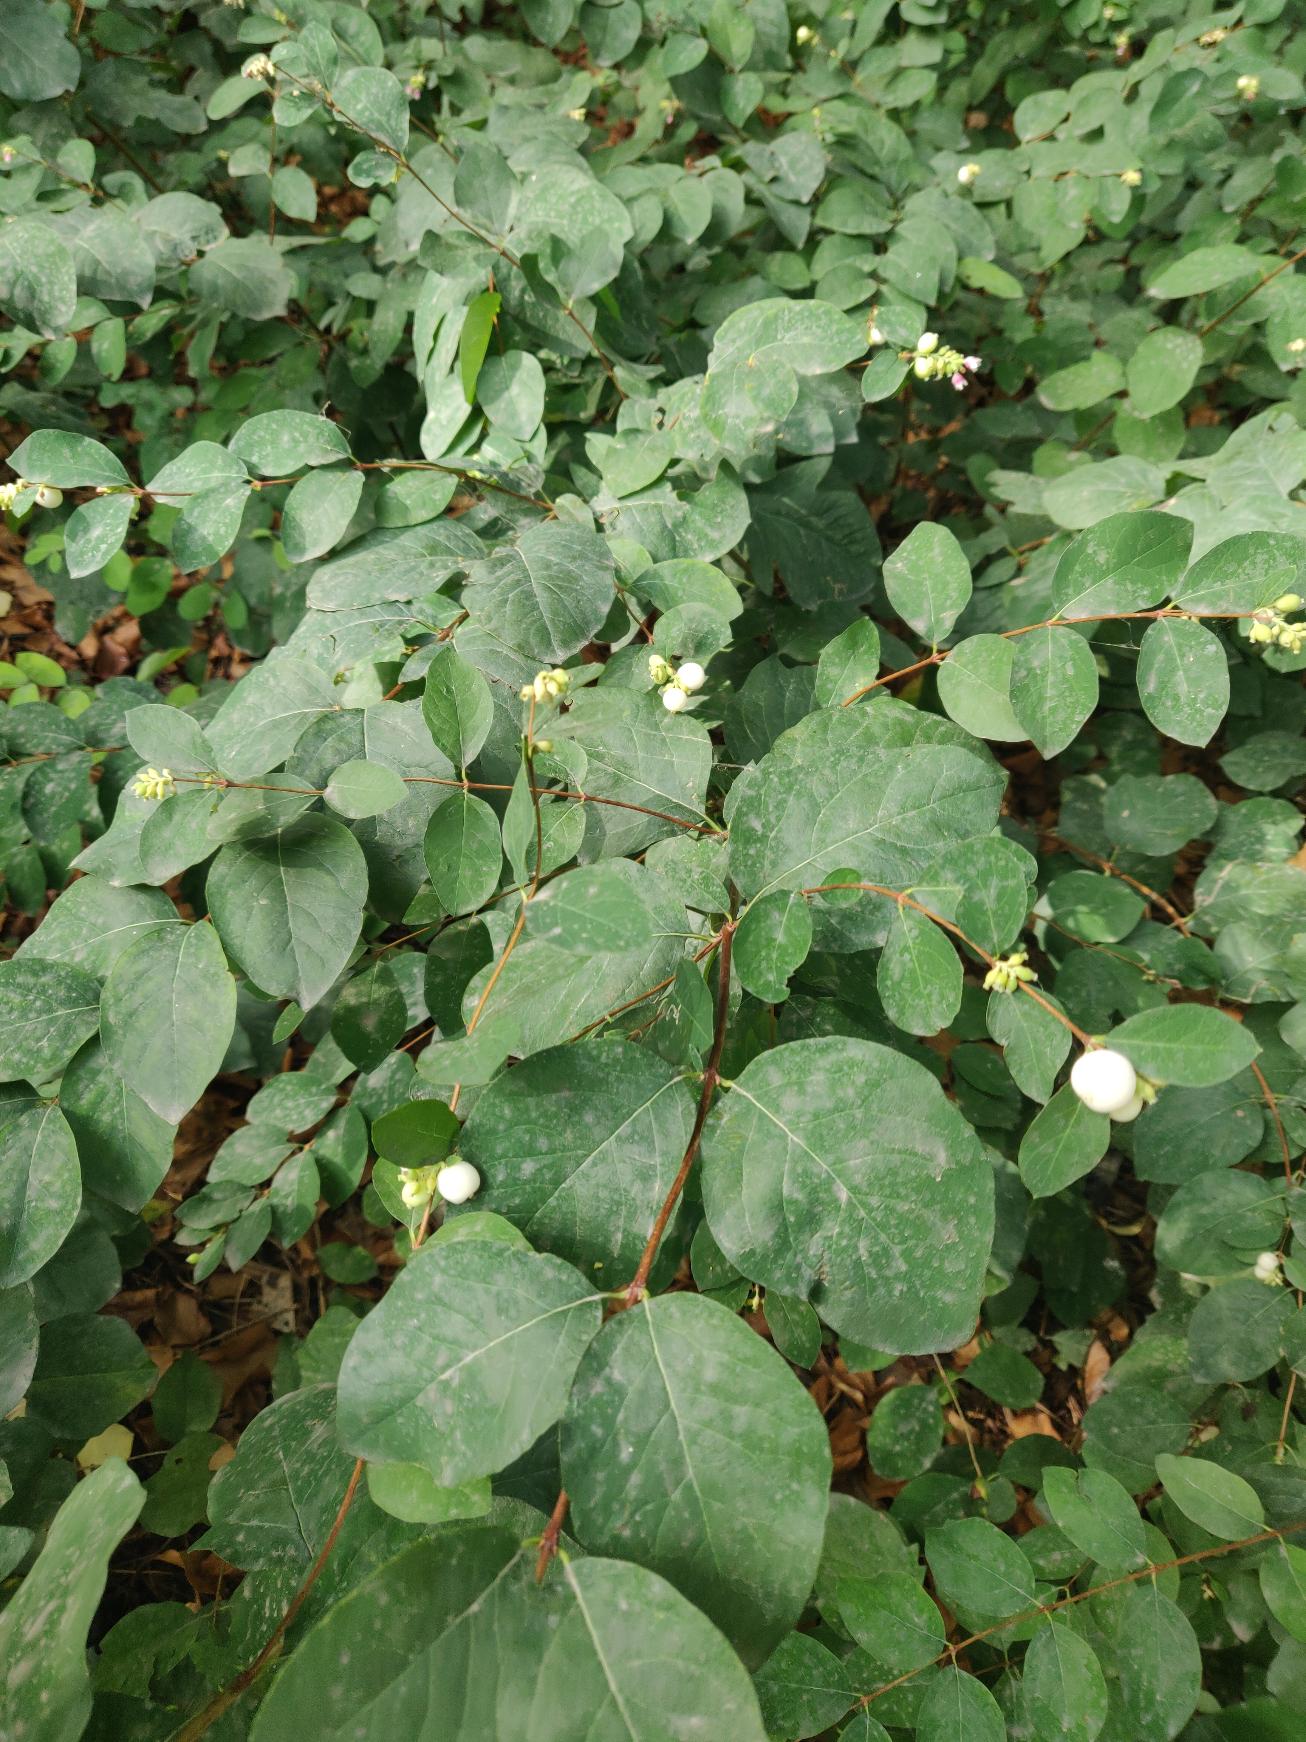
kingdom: Plantae
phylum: Tracheophyta
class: Magnoliopsida
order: Dipsacales
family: Caprifoliaceae
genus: Symphoricarpos
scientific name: Symphoricarpos albus
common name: Almindelig snebær
